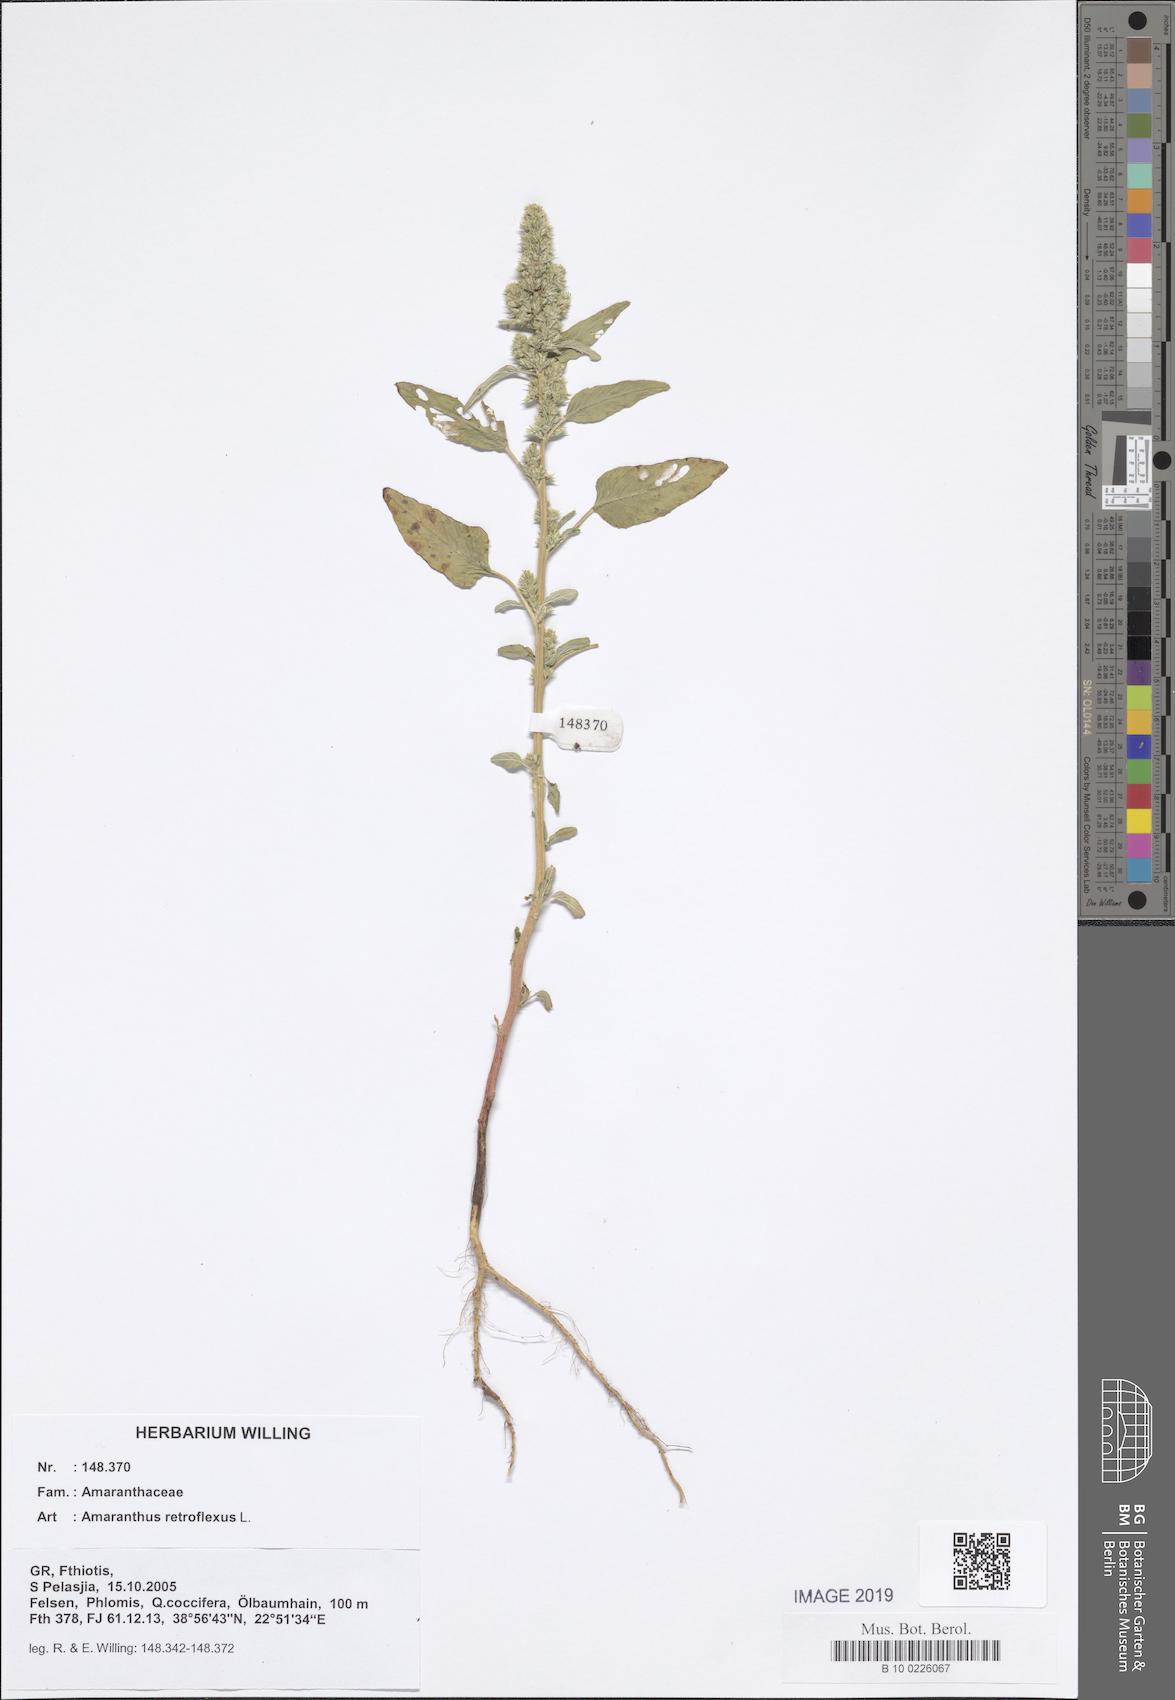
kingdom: Plantae
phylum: Tracheophyta
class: Magnoliopsida
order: Caryophyllales
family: Amaranthaceae
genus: Amaranthus
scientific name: Amaranthus retroflexus
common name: Redroot amaranth
